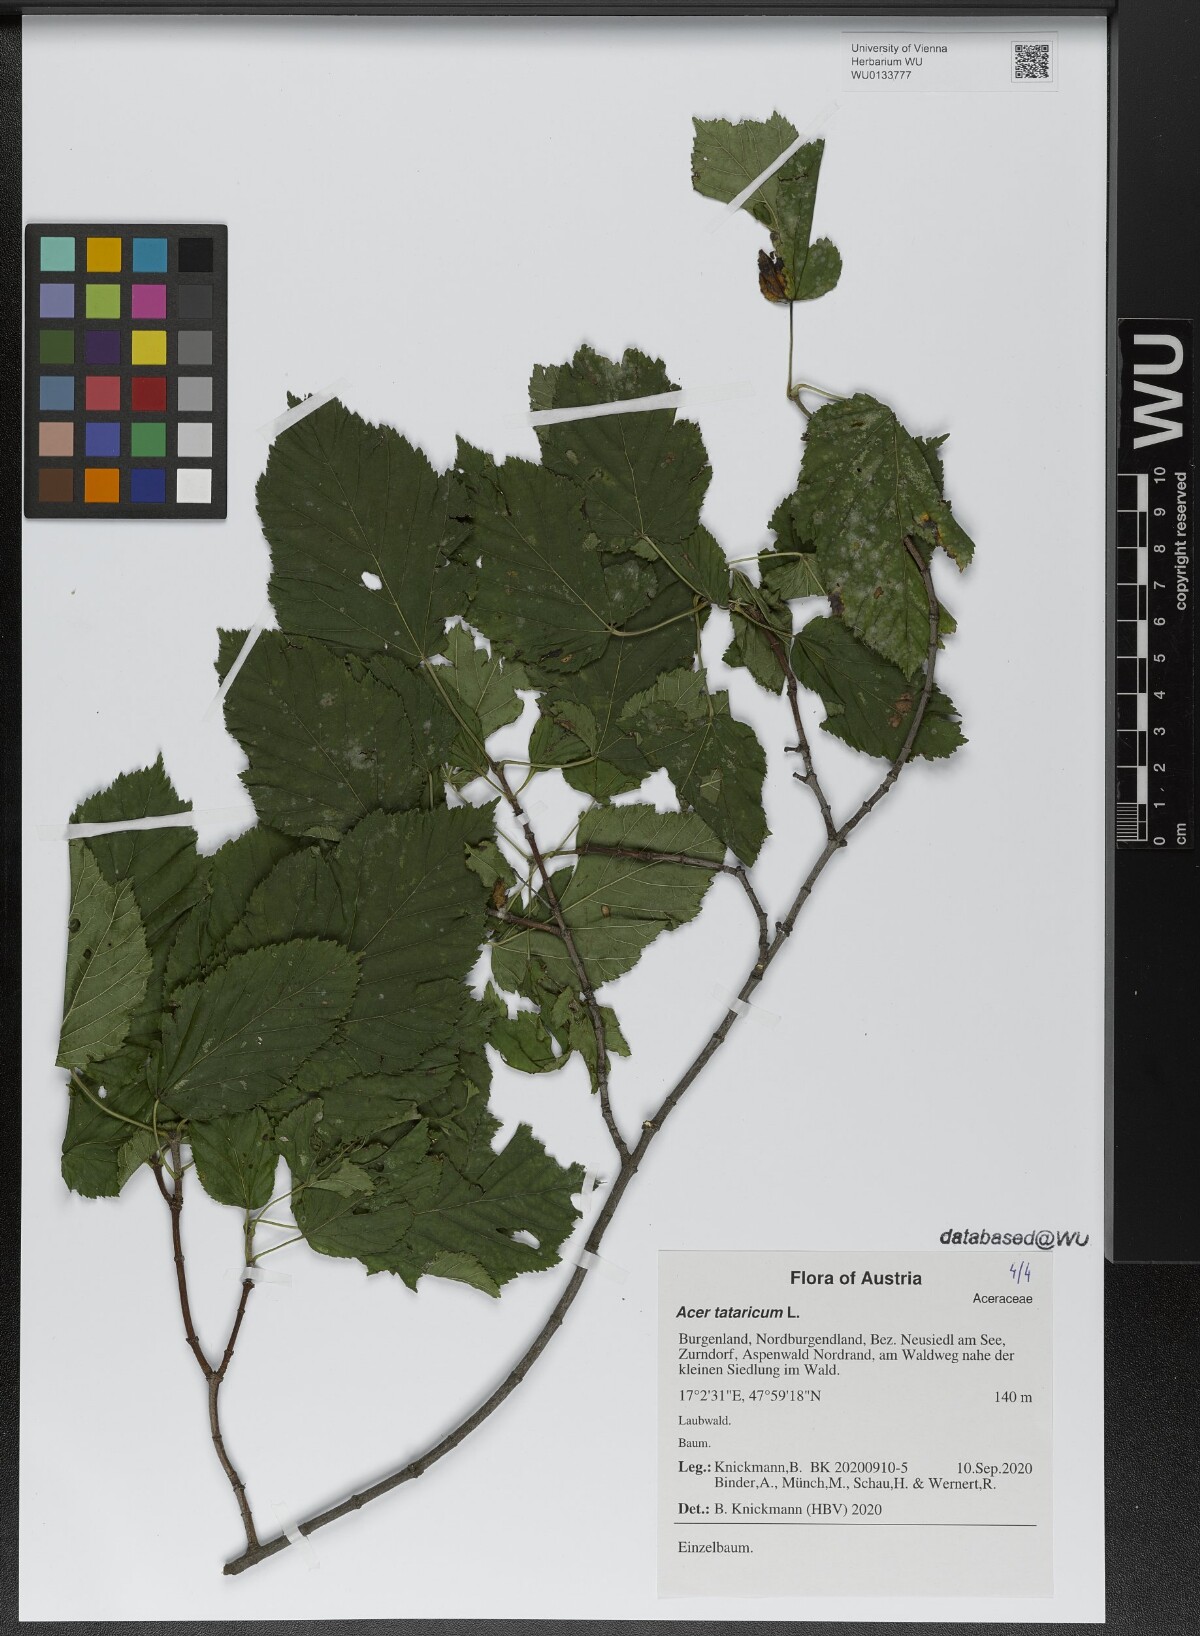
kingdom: Plantae
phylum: Tracheophyta
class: Magnoliopsida
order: Sapindales
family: Sapindaceae
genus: Acer
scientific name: Acer tataricum
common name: Tartar maple
